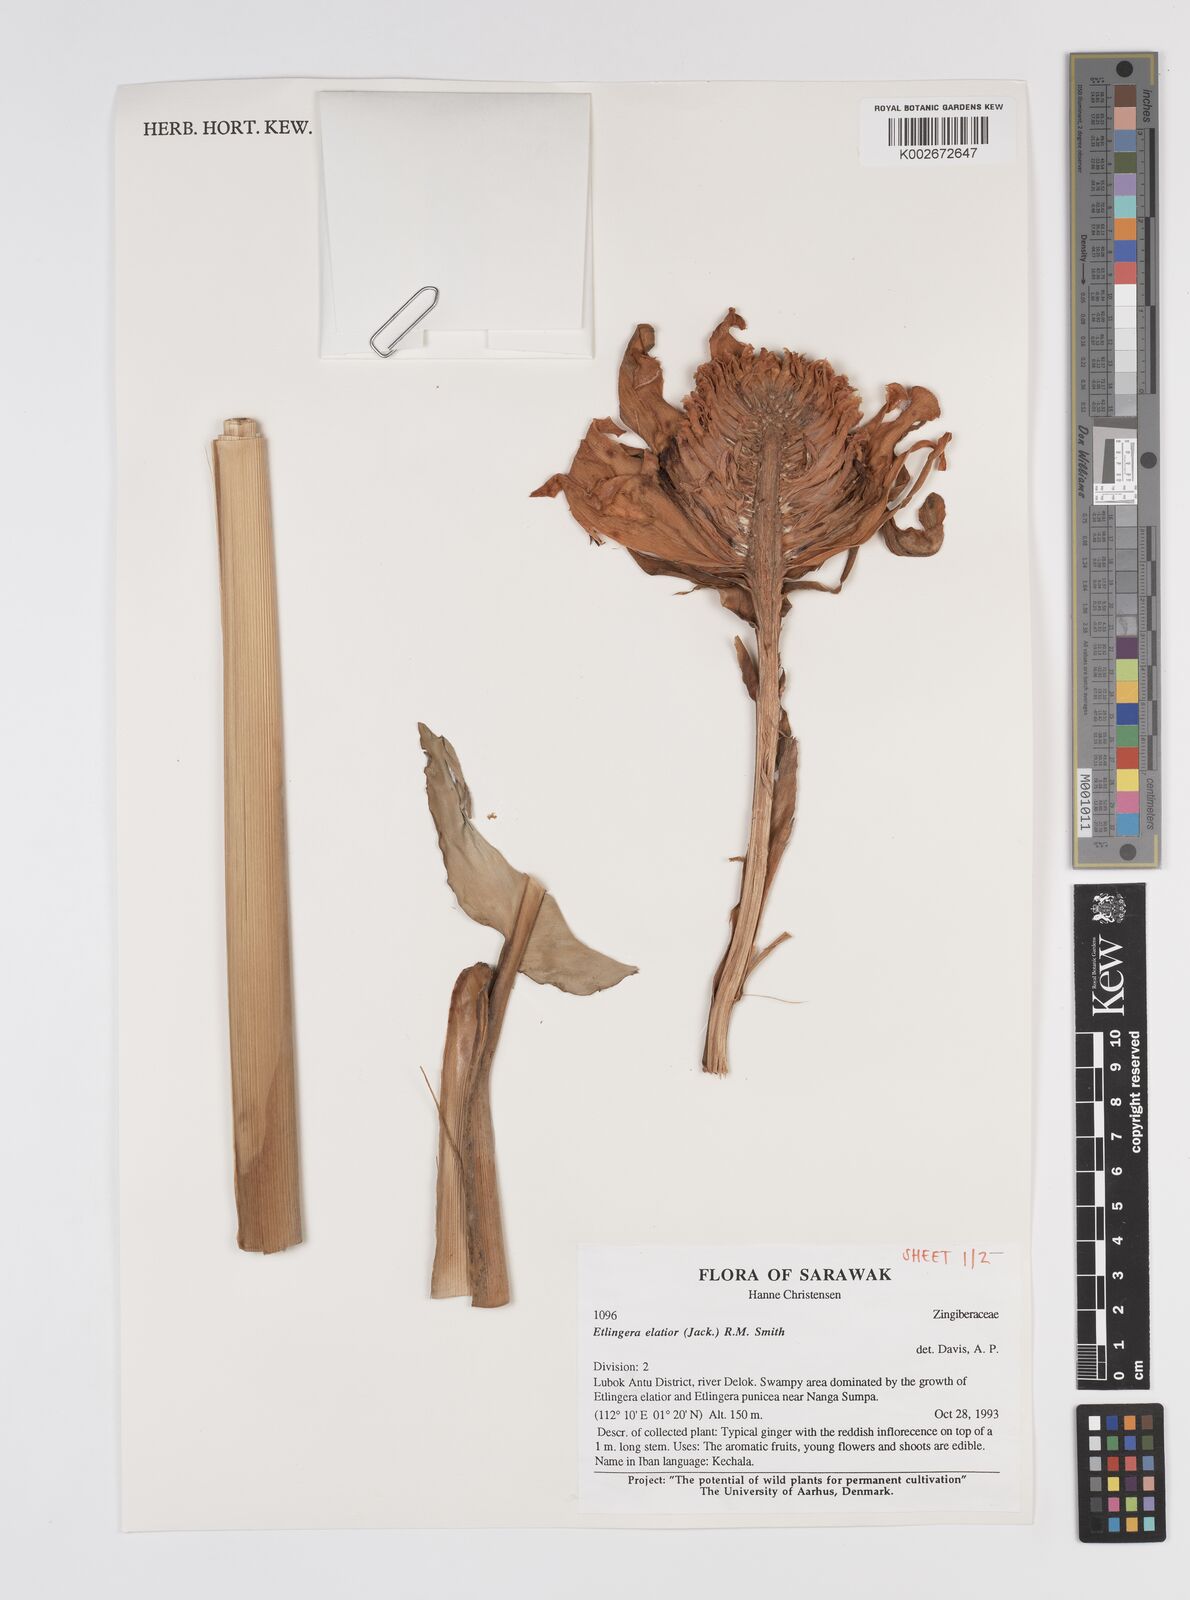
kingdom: Plantae
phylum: Tracheophyta
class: Liliopsida
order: Zingiberales
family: Zingiberaceae
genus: Etlingera
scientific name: Etlingera elatior
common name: Philippine waxflower
